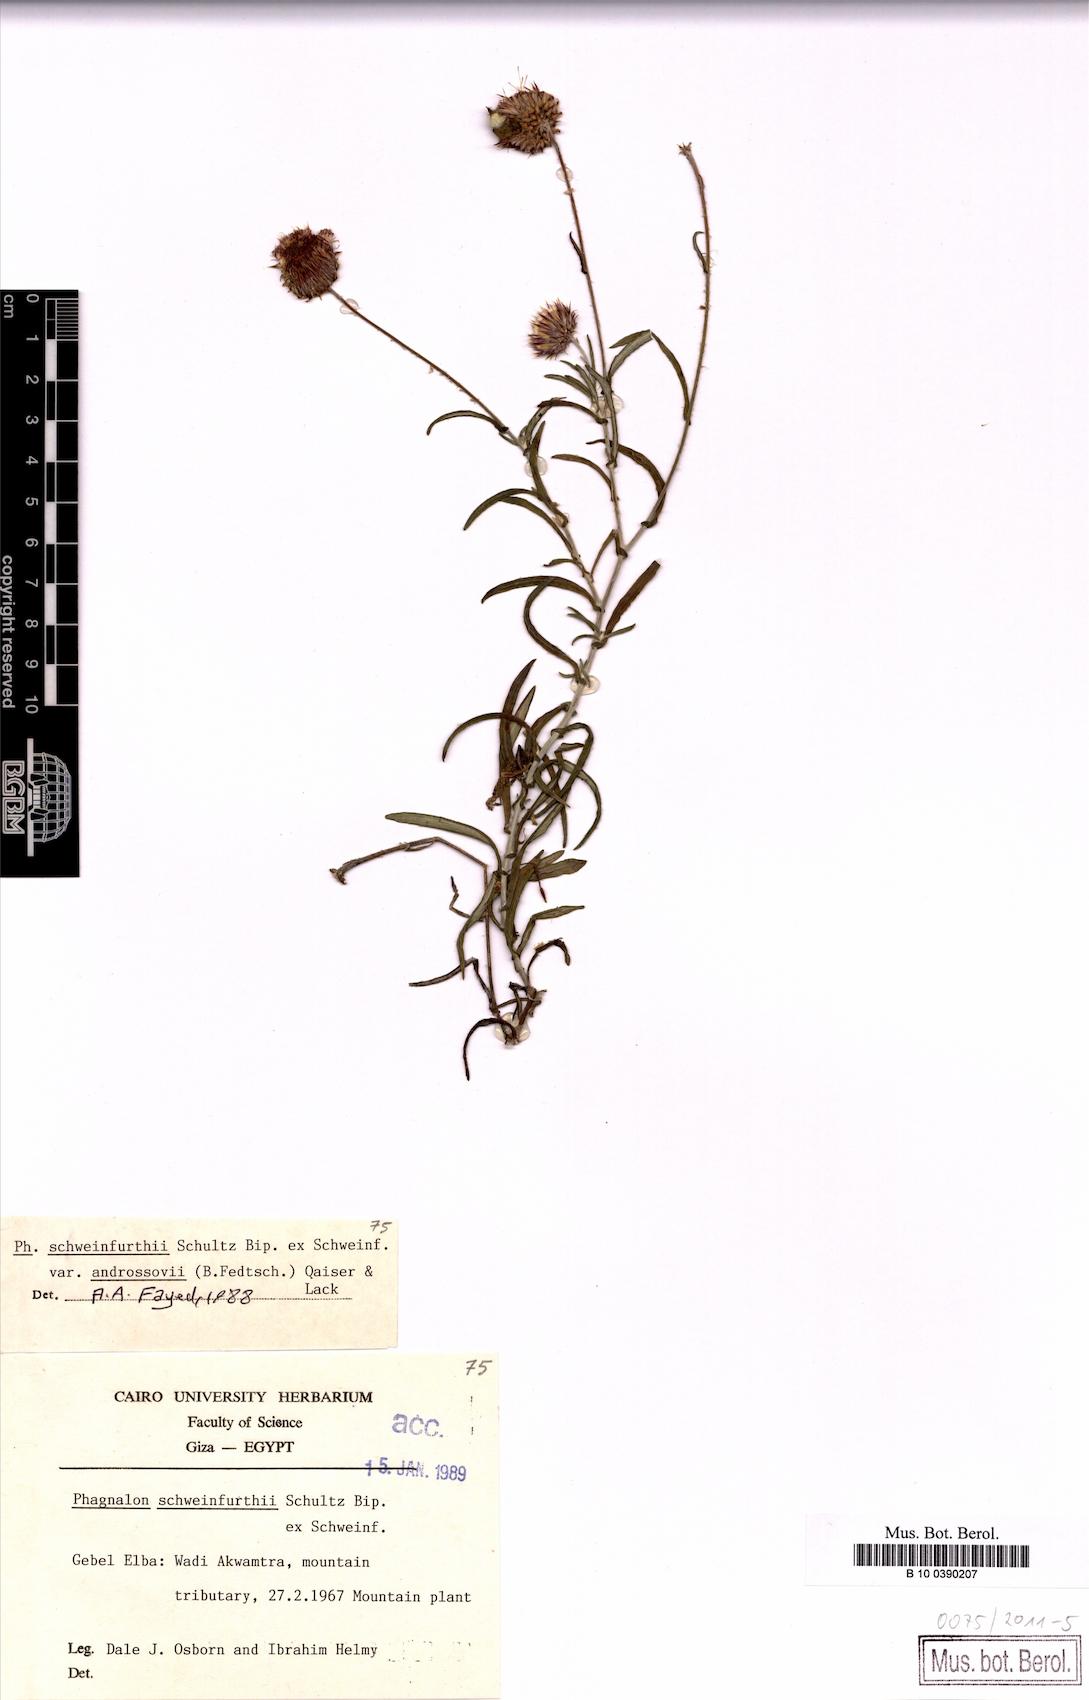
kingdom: Plantae
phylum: Tracheophyta
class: Magnoliopsida
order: Asterales
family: Asteraceae
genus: Phagnalon
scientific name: Phagnalon schweinfurthii
